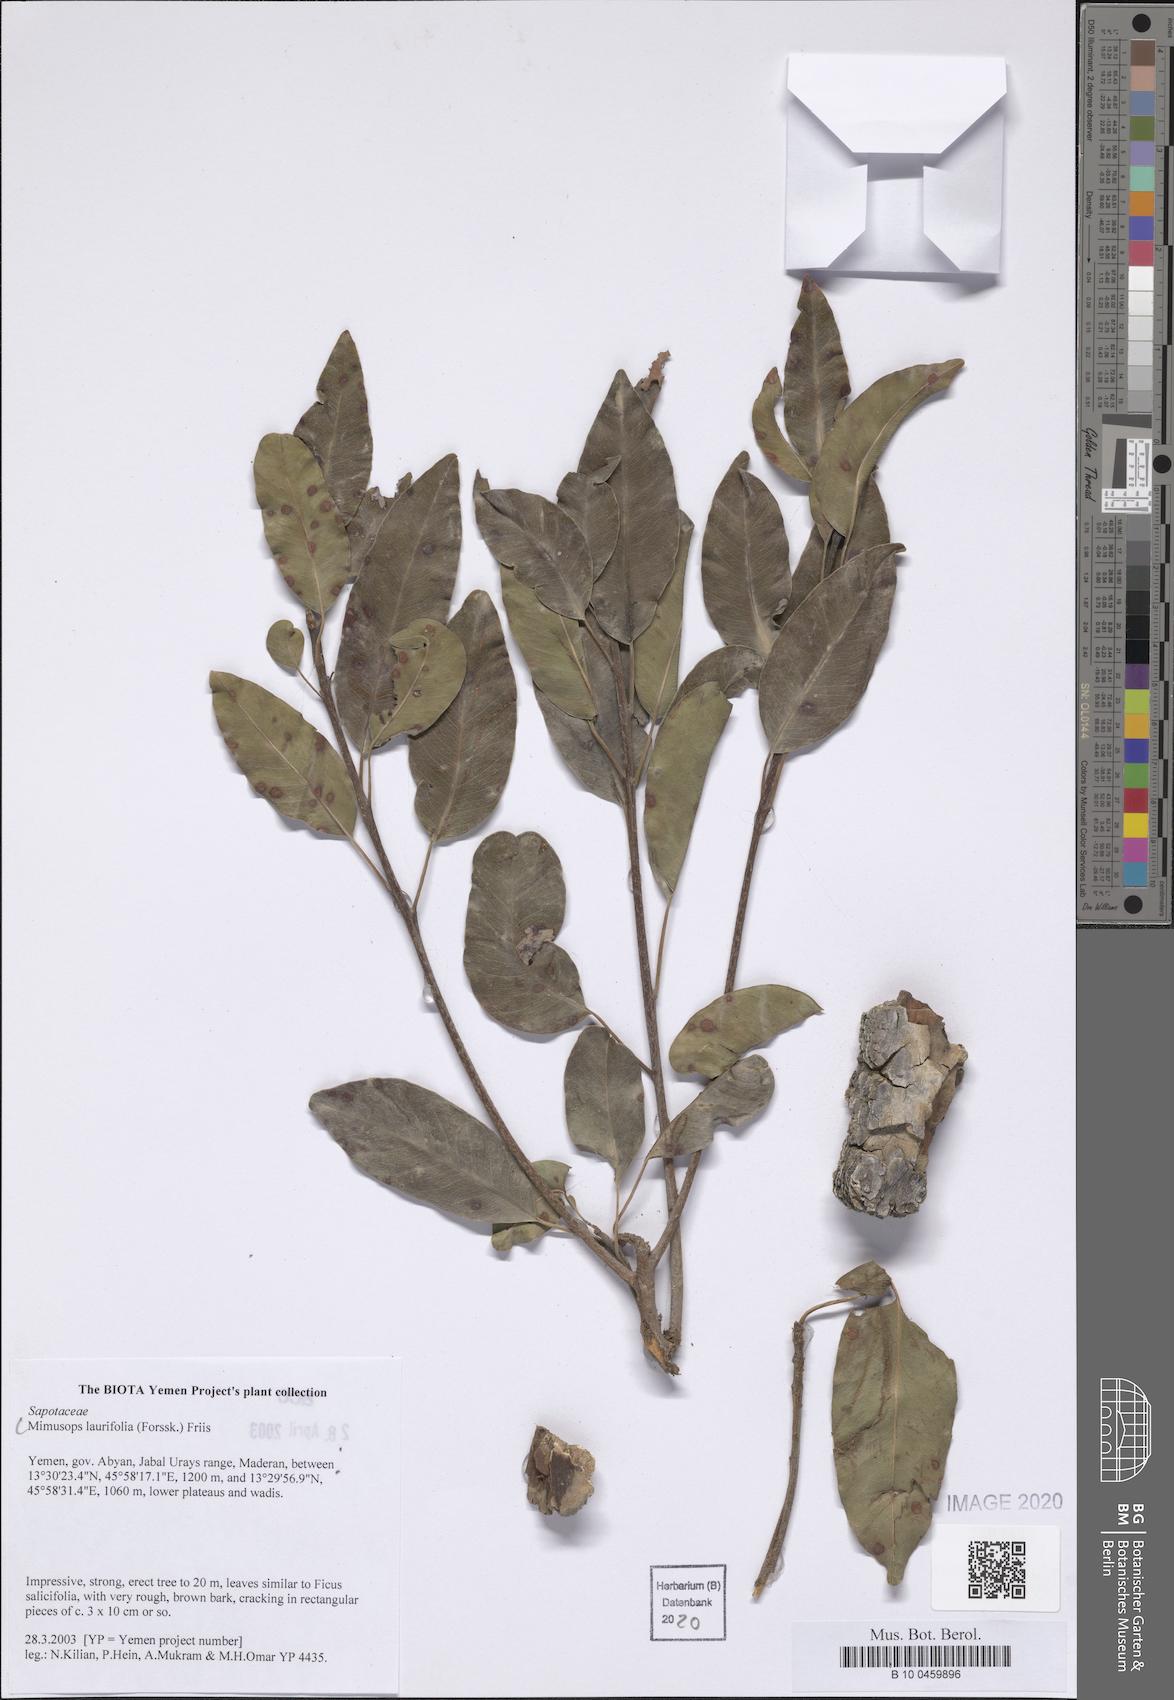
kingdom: Plantae
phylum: Tracheophyta
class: Magnoliopsida
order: Ericales
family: Sapotaceae
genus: Mimusops
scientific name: Mimusops laurifolia
